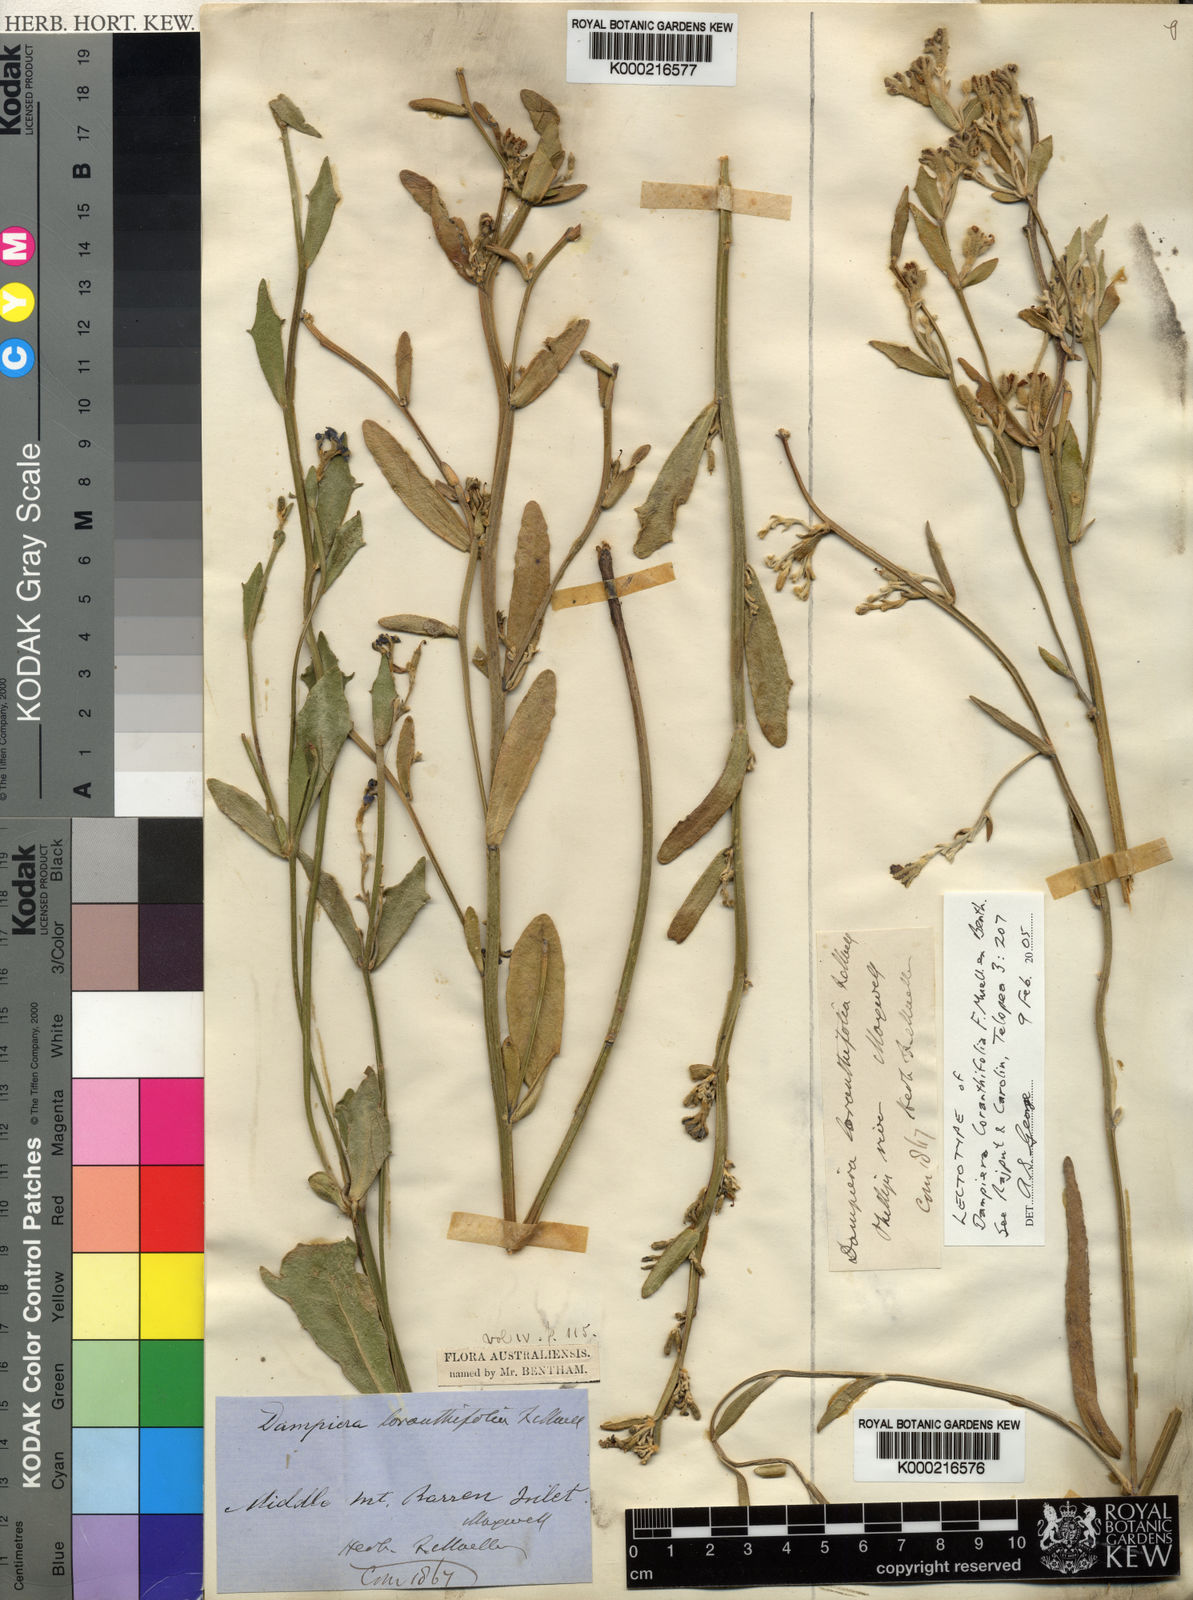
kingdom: Plantae
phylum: Tracheophyta
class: Magnoliopsida
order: Asterales
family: Goodeniaceae
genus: Dampiera
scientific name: Dampiera loranthifolia
